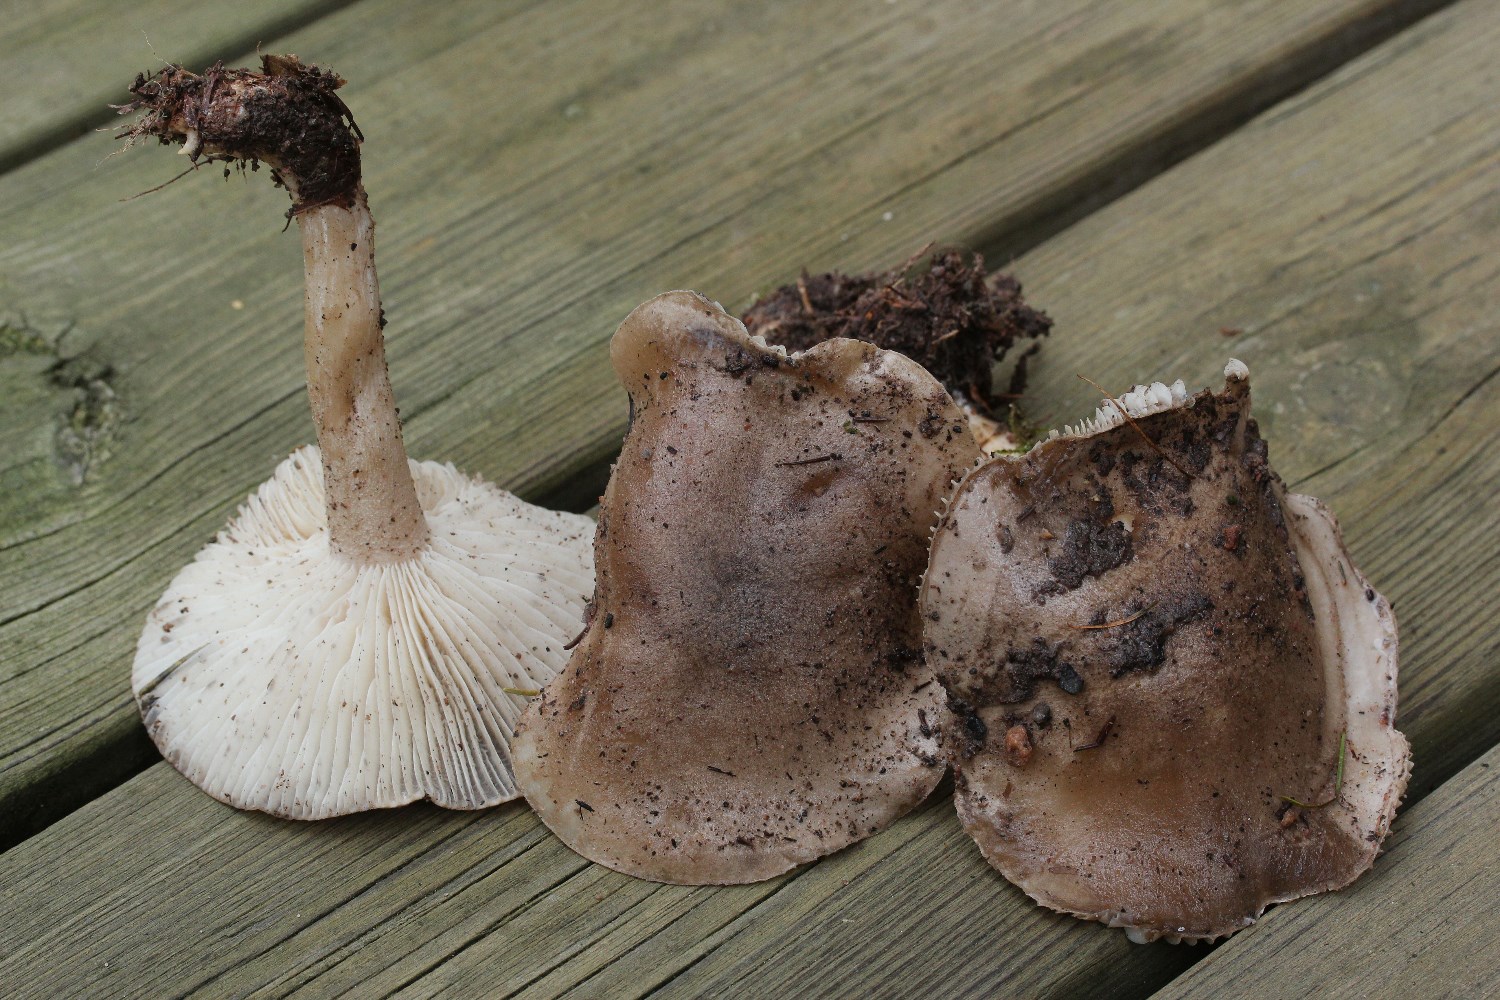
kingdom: Fungi
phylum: Basidiomycota
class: Agaricomycetes
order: Agaricales
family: Hygrophoraceae
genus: Hygrophorus
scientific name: Hygrophorus agathosmus
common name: vellugtende sneglehat
